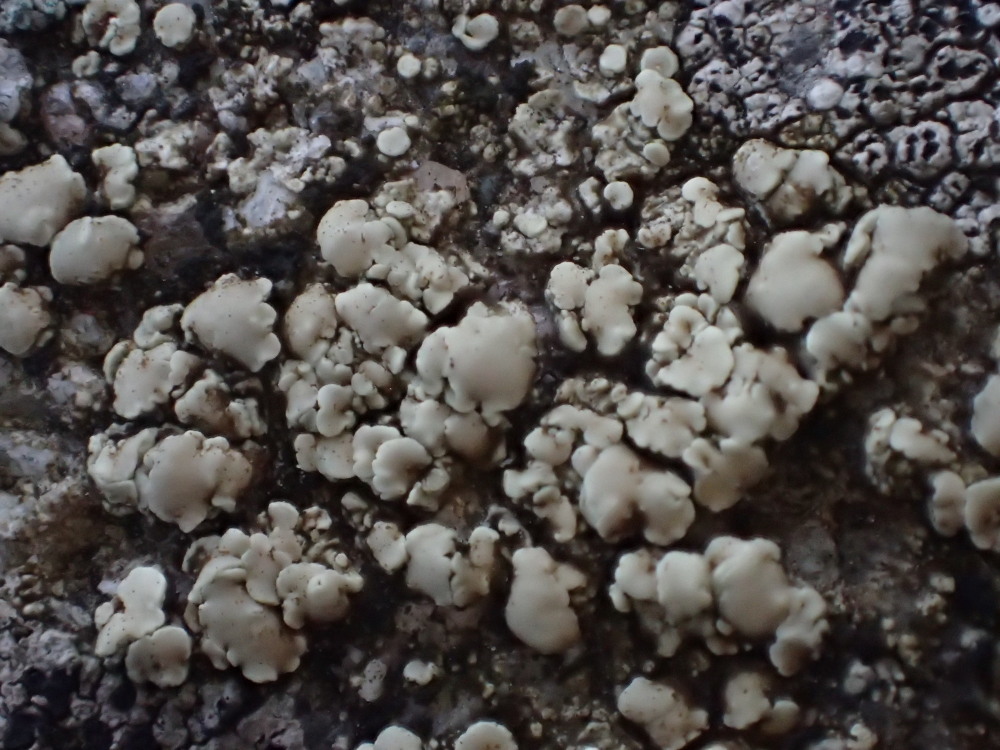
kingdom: Fungi
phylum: Ascomycota
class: Lecanoromycetes
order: Lecanorales
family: Lecanoraceae
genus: Lecanora
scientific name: Lecanora polytropa
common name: bleggrøn kantskivelav
